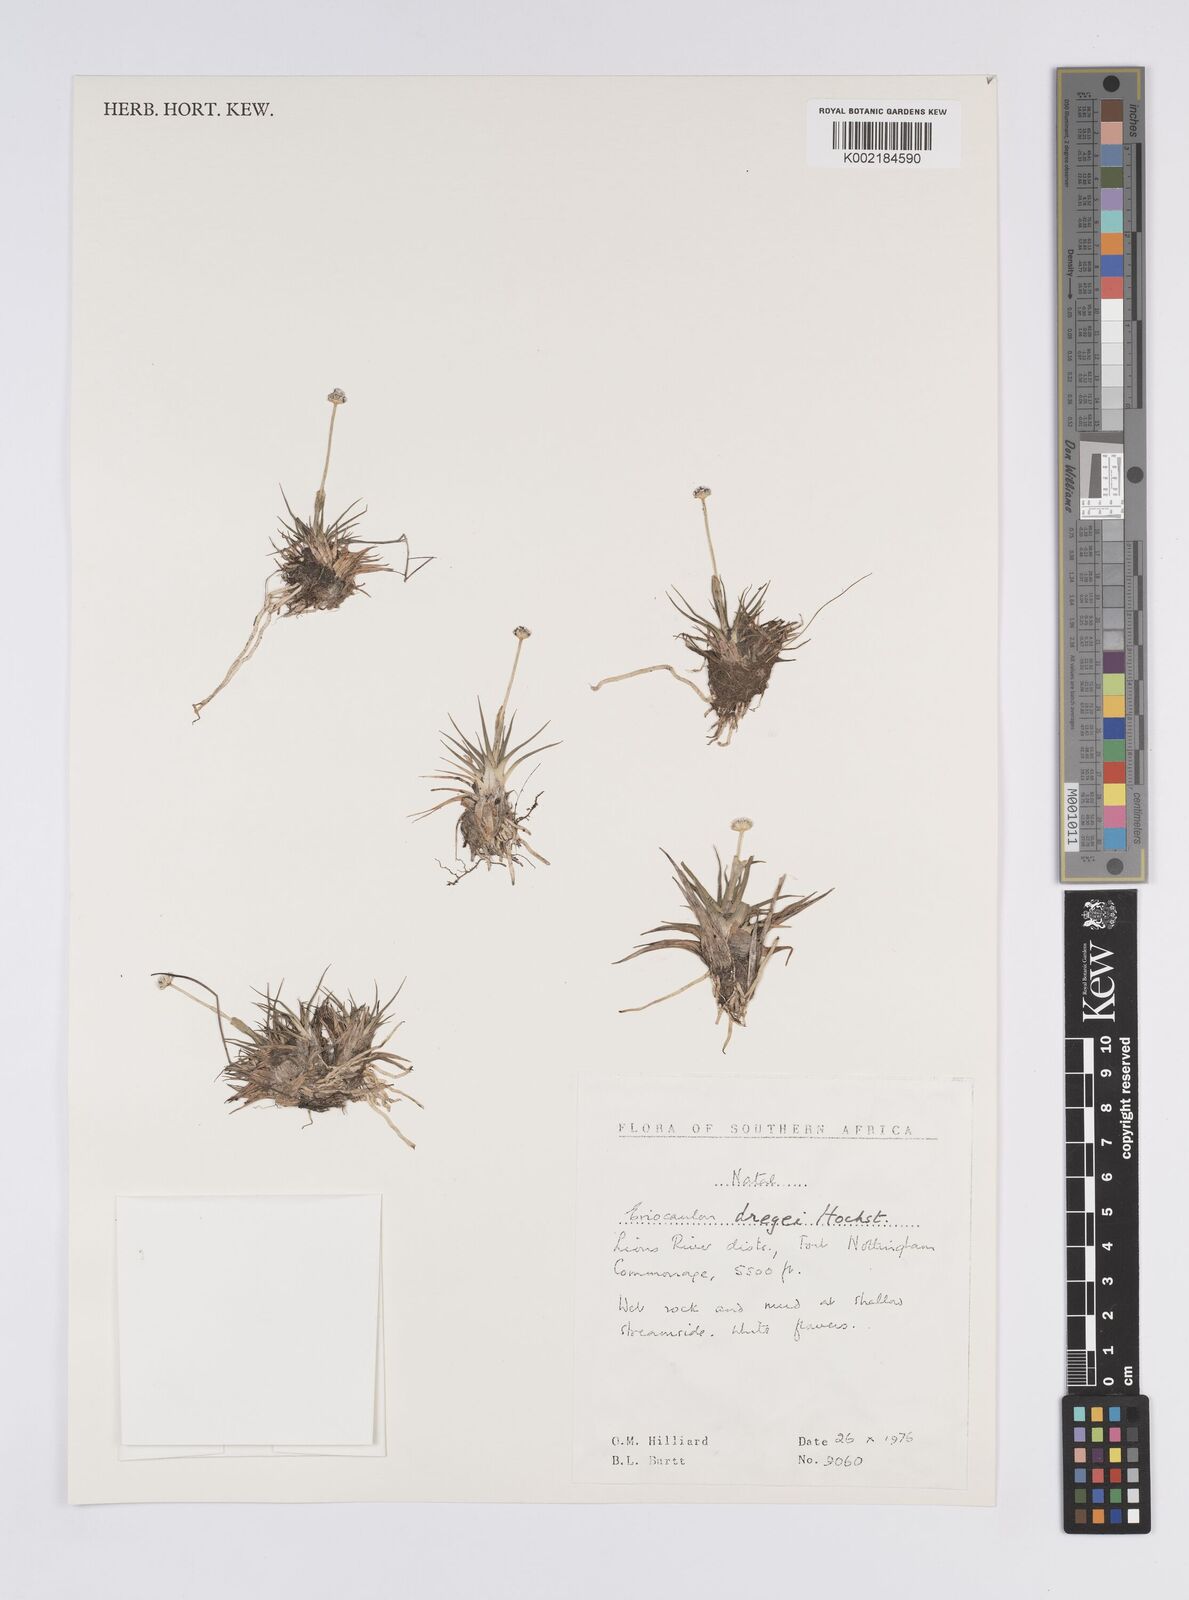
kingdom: Plantae
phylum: Tracheophyta
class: Liliopsida
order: Poales
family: Eriocaulaceae
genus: Eriocaulon
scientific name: Eriocaulon sonderianum
